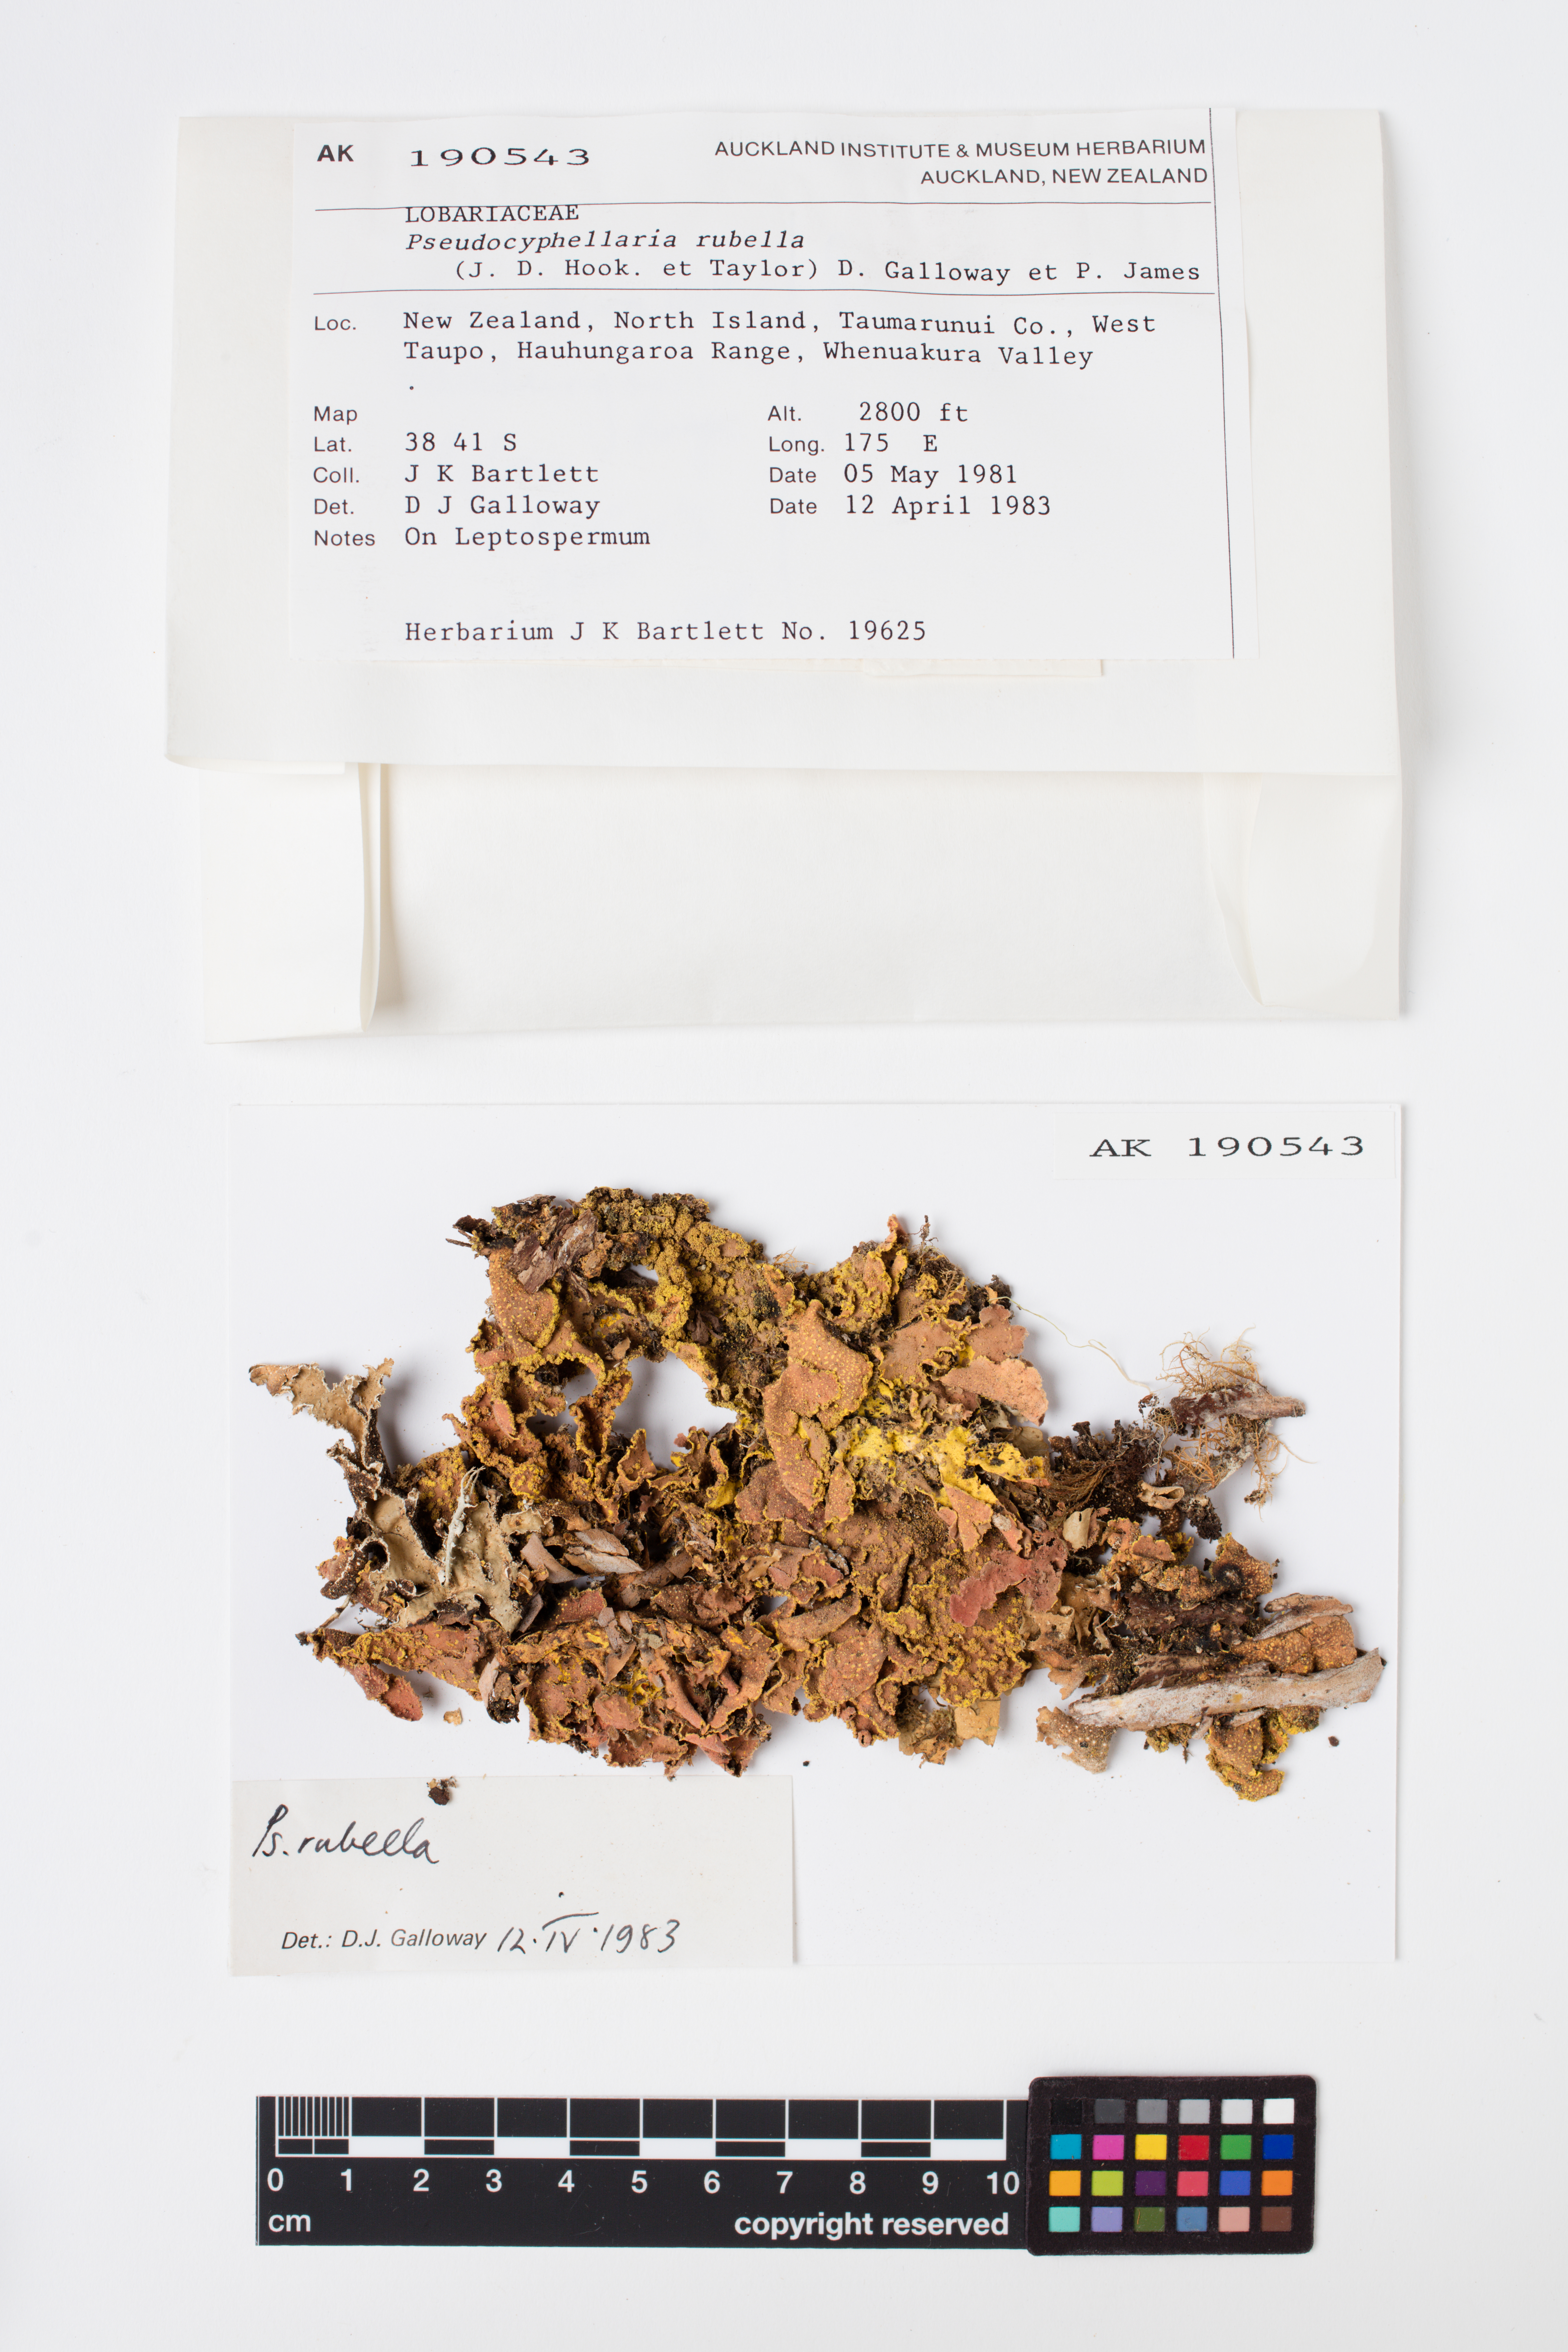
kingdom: Fungi
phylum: Ascomycota
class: Lecanoromycetes
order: Peltigerales
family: Lobariaceae
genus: Pseudocyphellaria
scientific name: Pseudocyphellaria rubella
